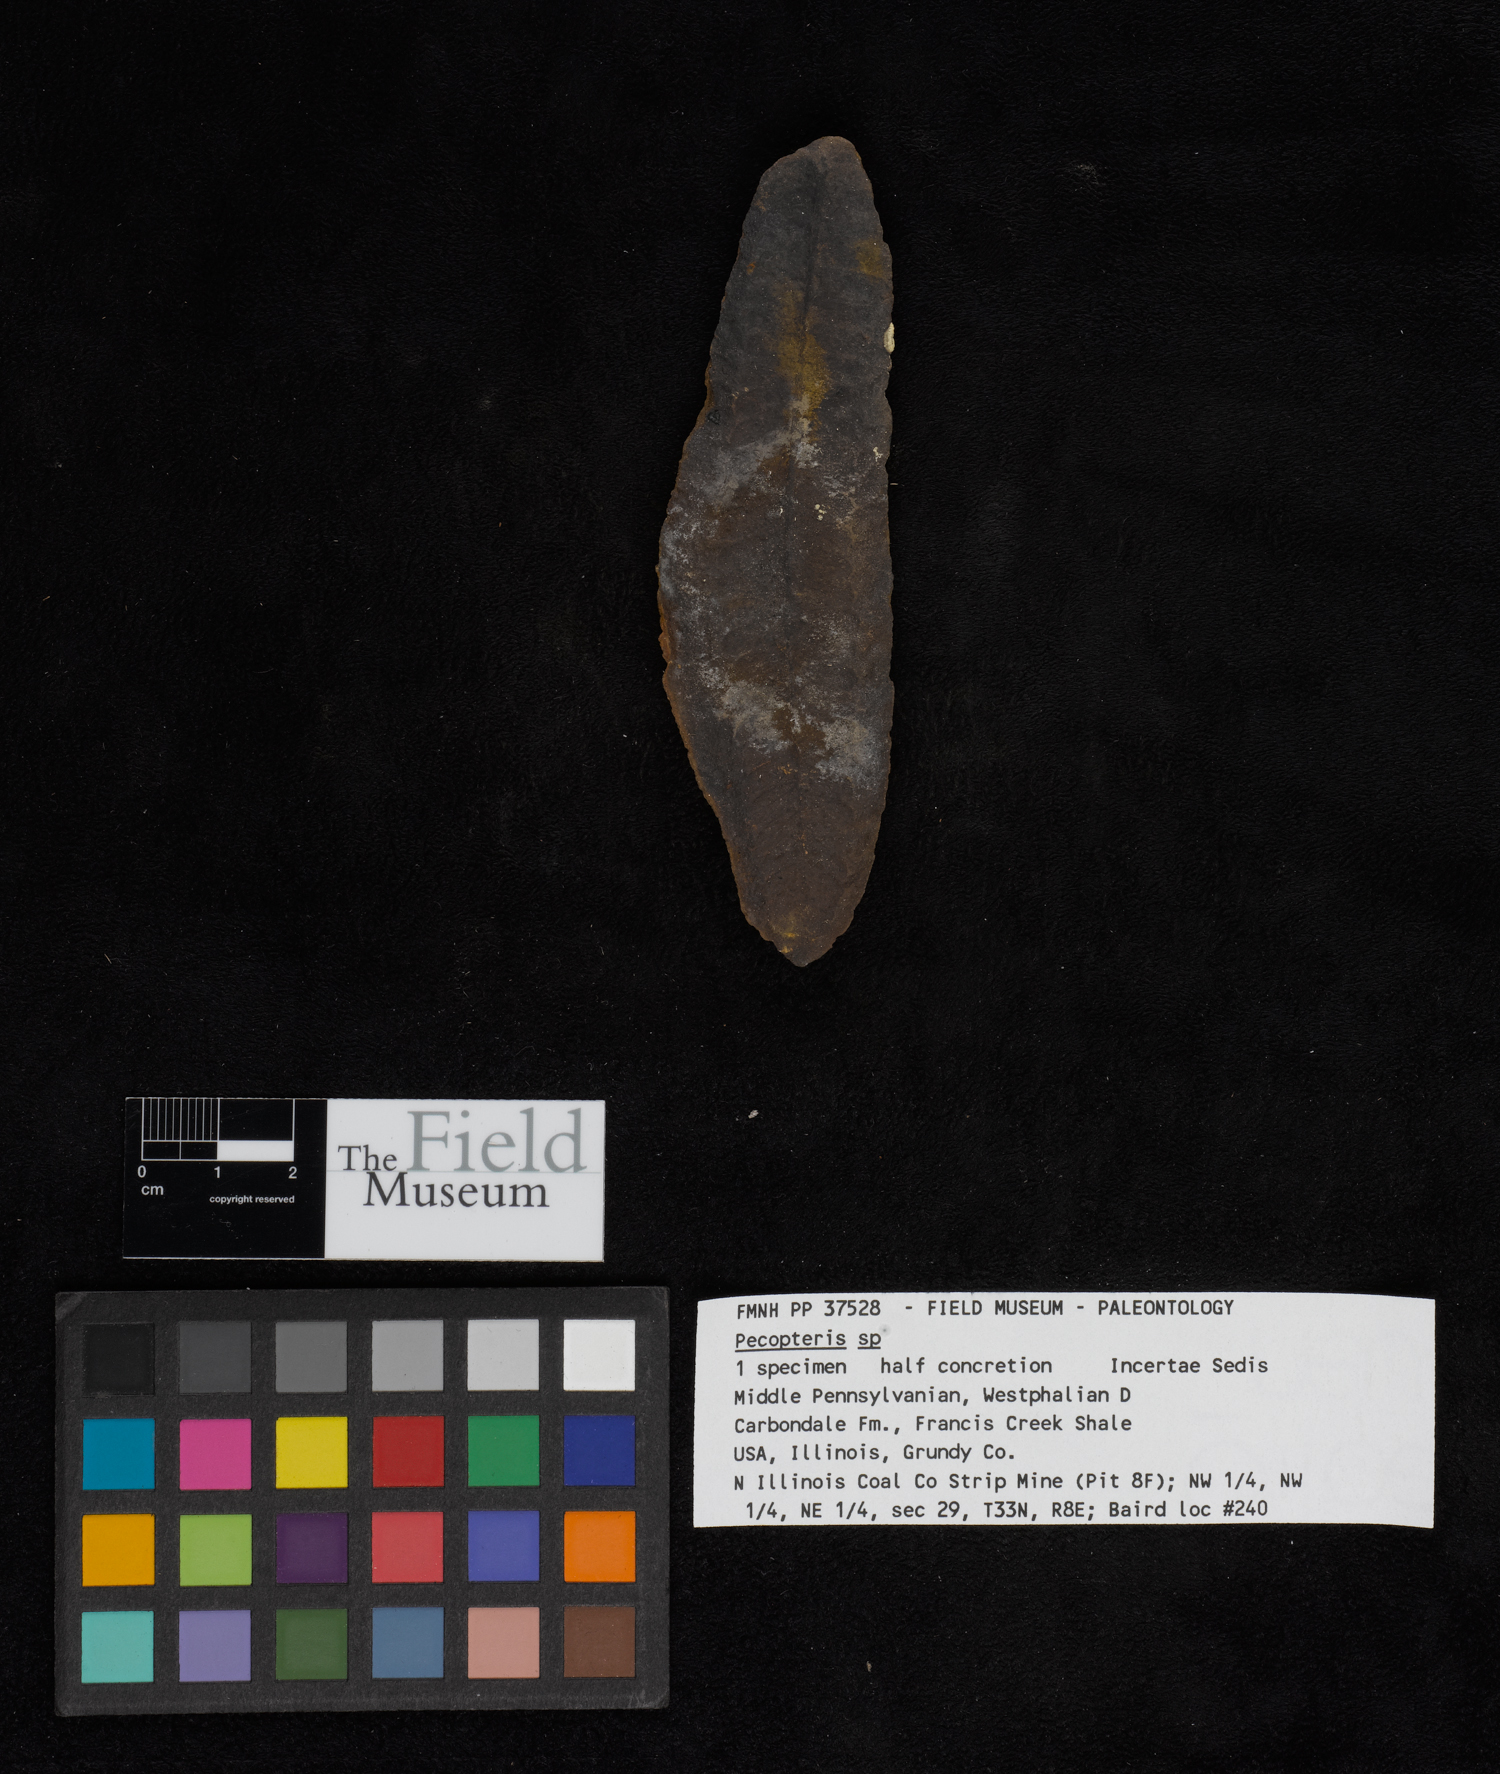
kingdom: Plantae
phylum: Tracheophyta
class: Polypodiopsida
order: Marattiales
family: Asterothecaceae
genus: Pecopteris
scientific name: Pecopteris
